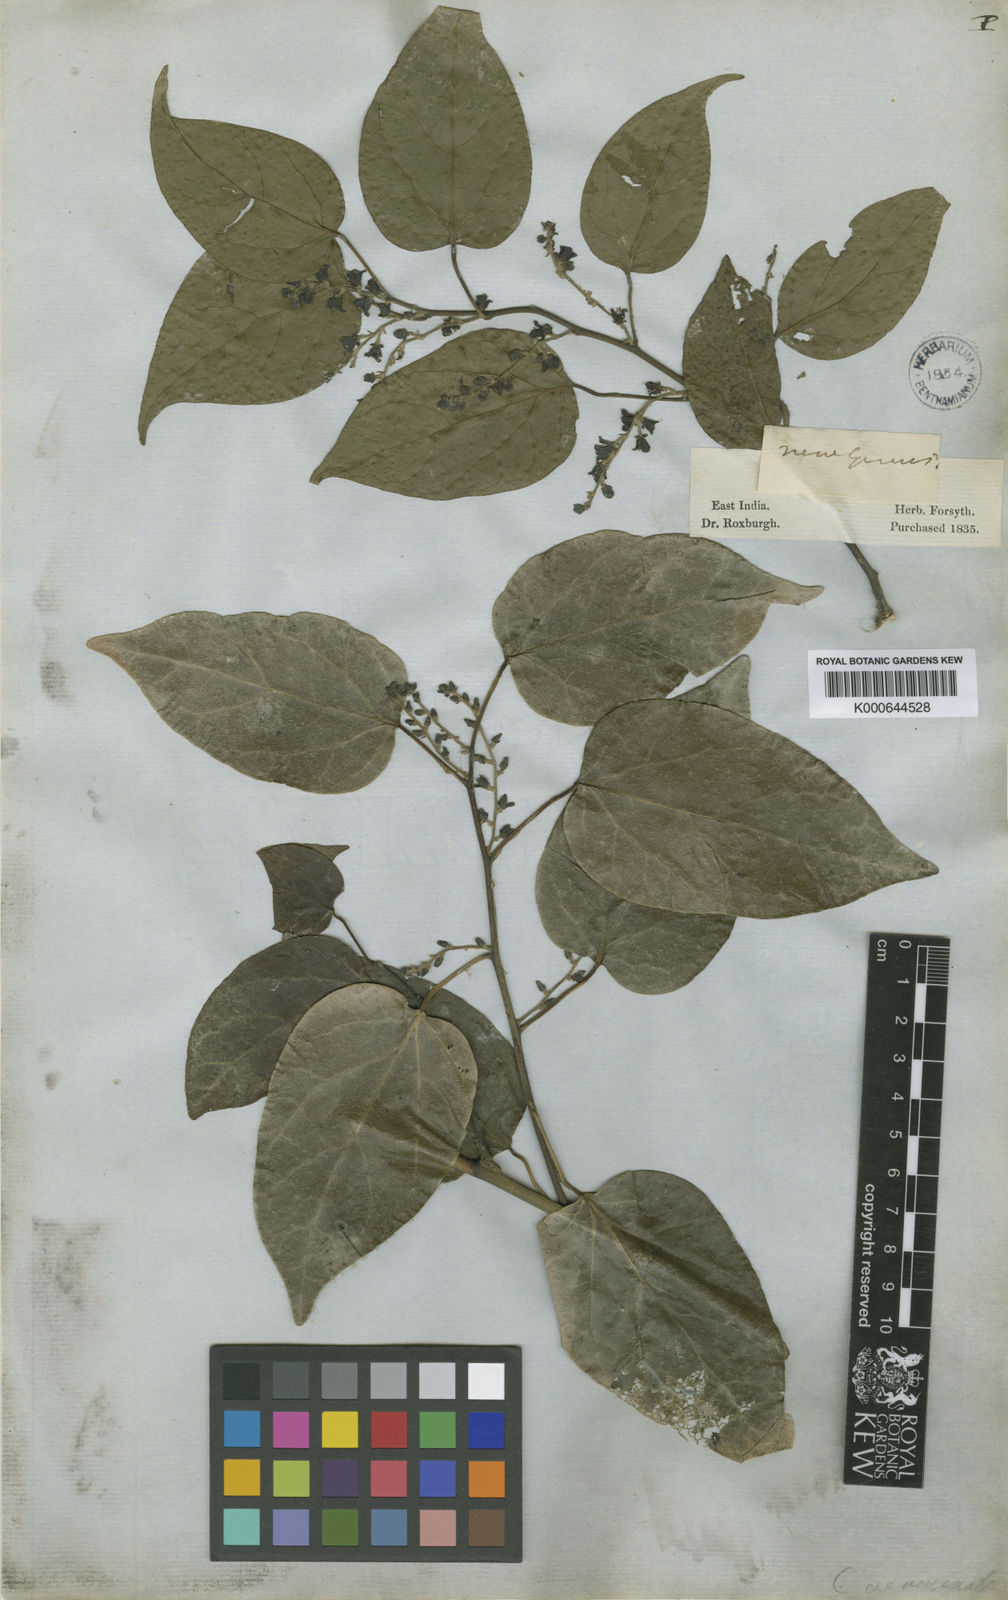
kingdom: Plantae
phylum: Tracheophyta
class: Magnoliopsida
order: Ranunculales
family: Menispermaceae
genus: Tiliacora
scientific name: Tiliacora acuminata
